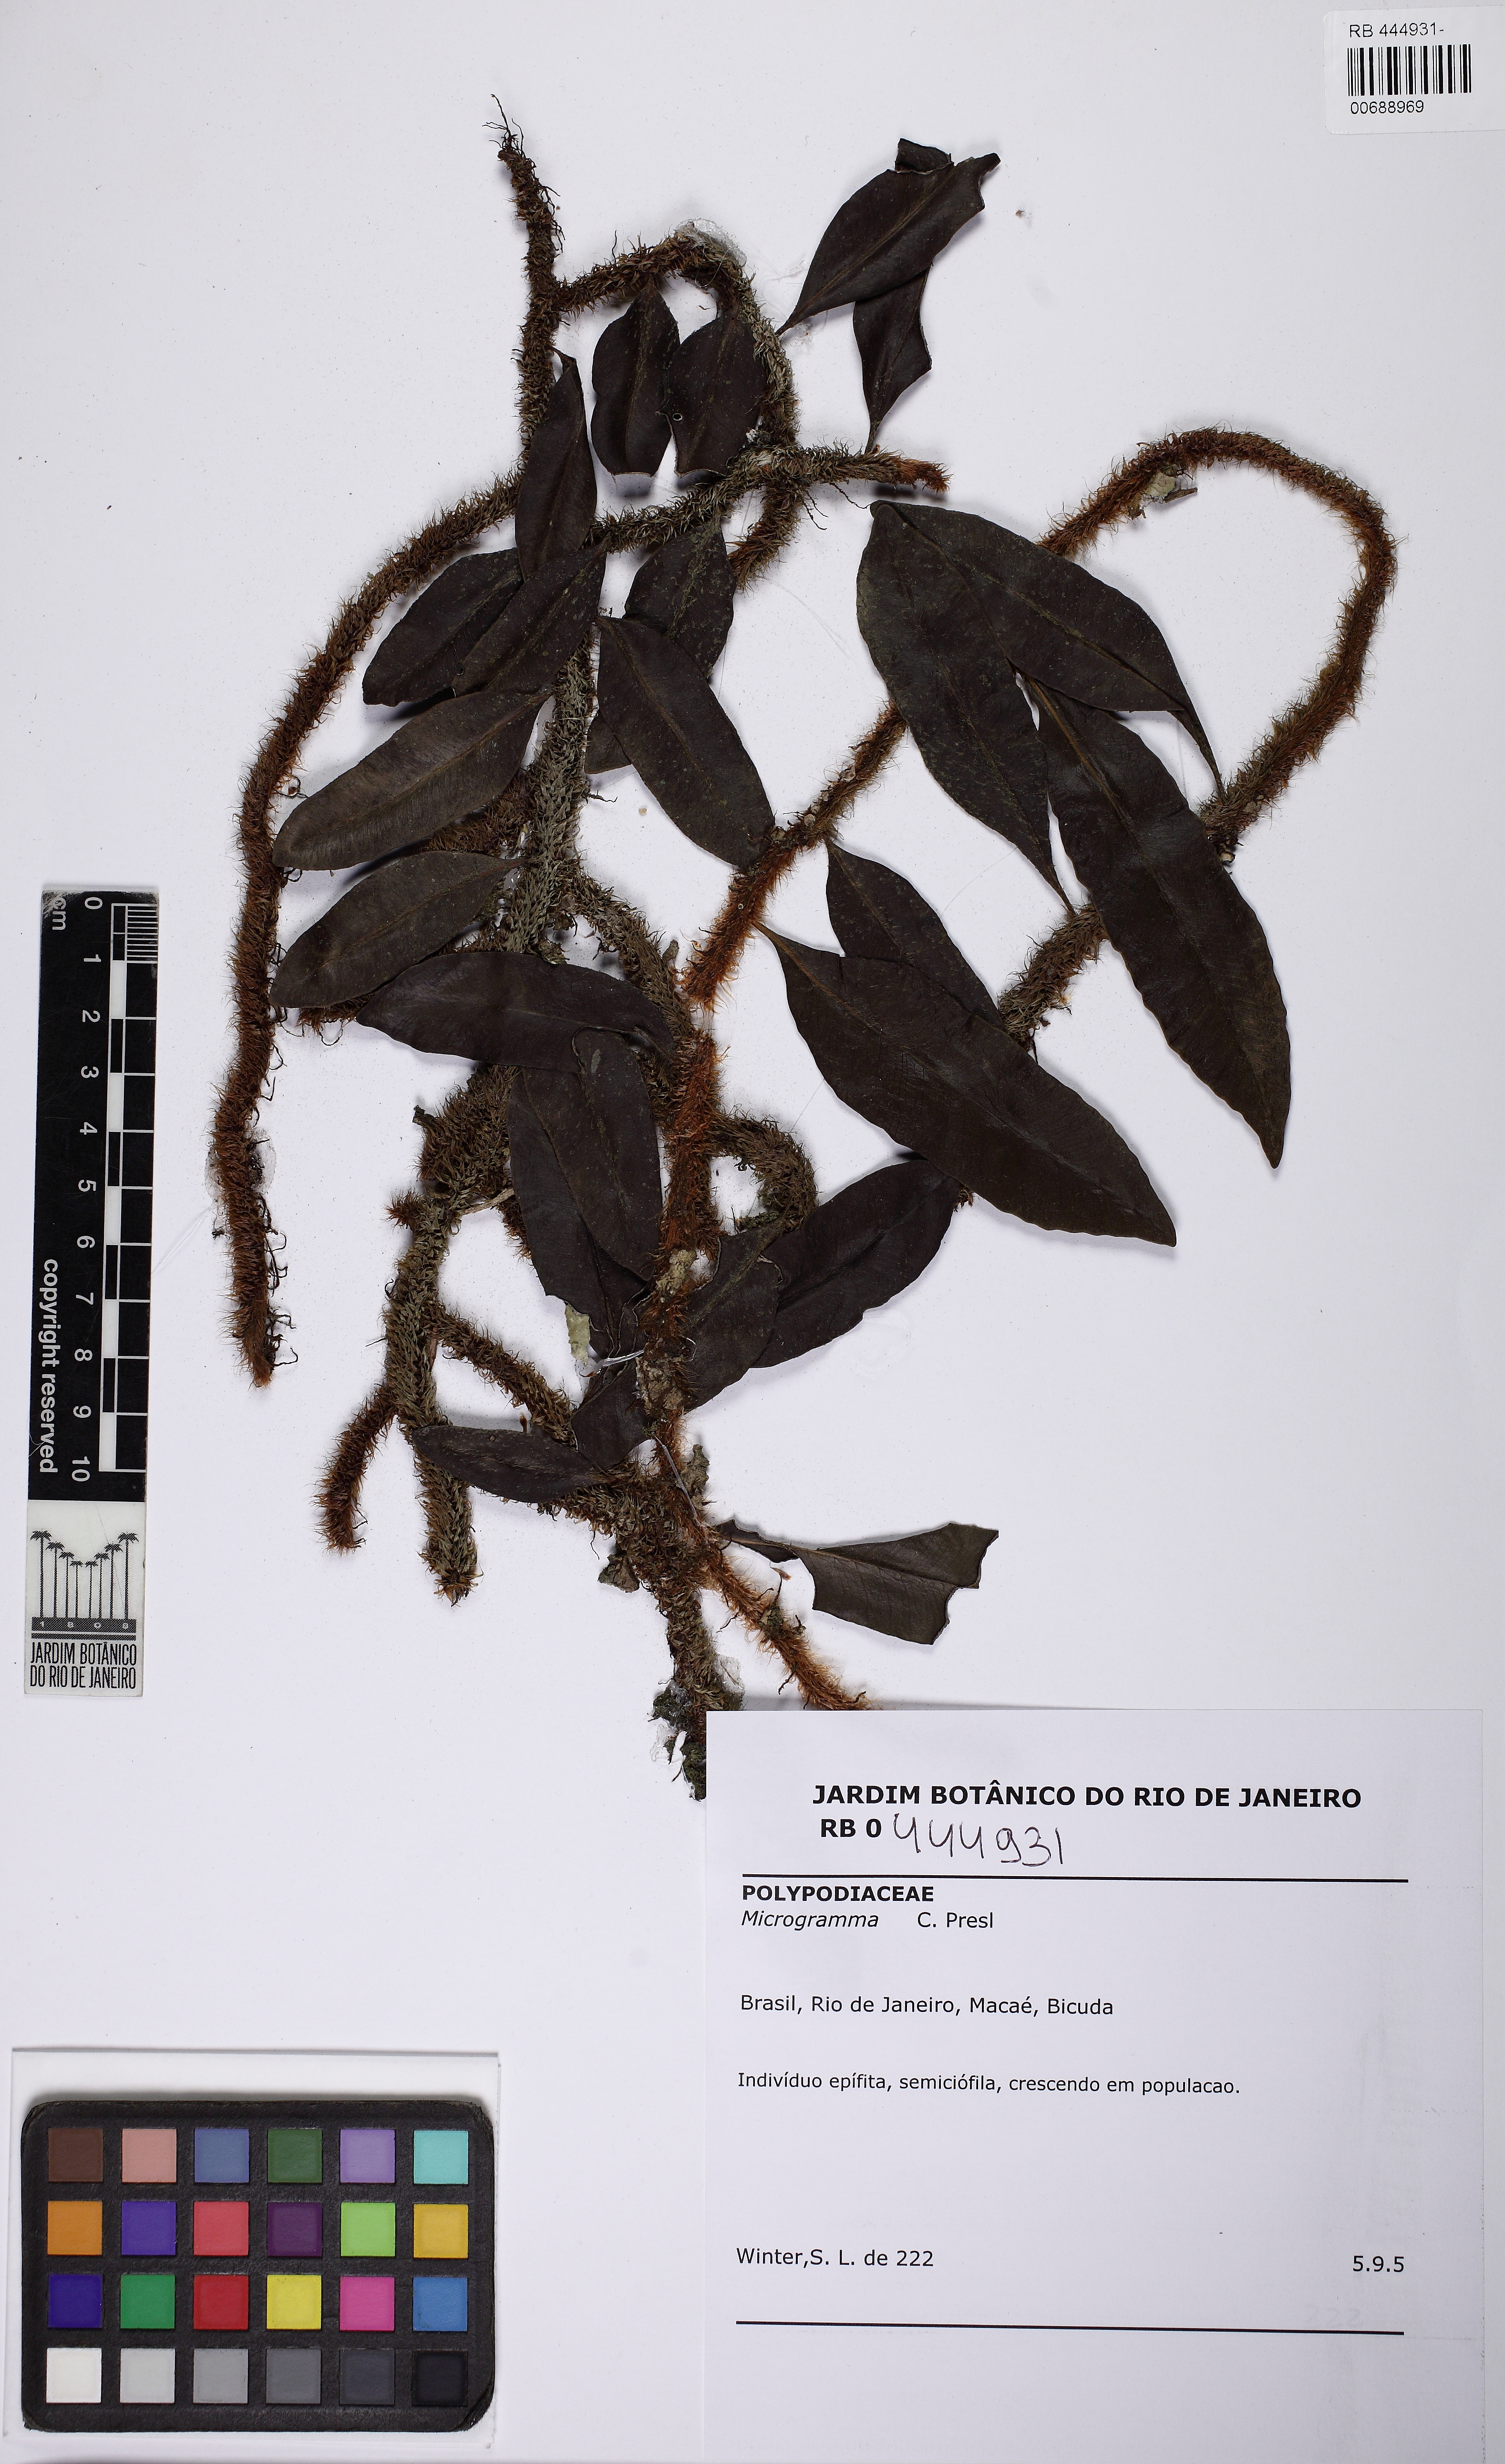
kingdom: Plantae
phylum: Tracheophyta
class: Polypodiopsida
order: Polypodiales
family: Polypodiaceae
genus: Microgramma
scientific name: Microgramma crispata
